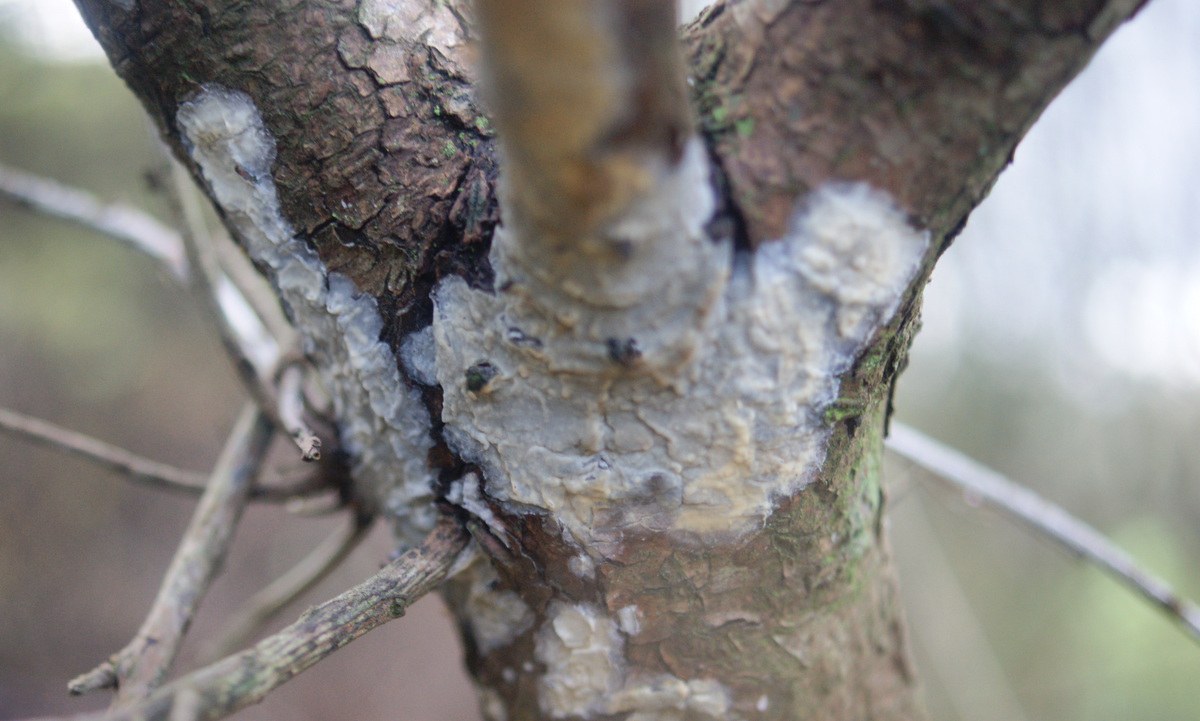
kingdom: Fungi
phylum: Basidiomycota
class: Agaricomycetes
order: Agaricales
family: Radulomycetaceae
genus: Radulomyces
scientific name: Radulomyces confluens
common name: glat naftalinskind
